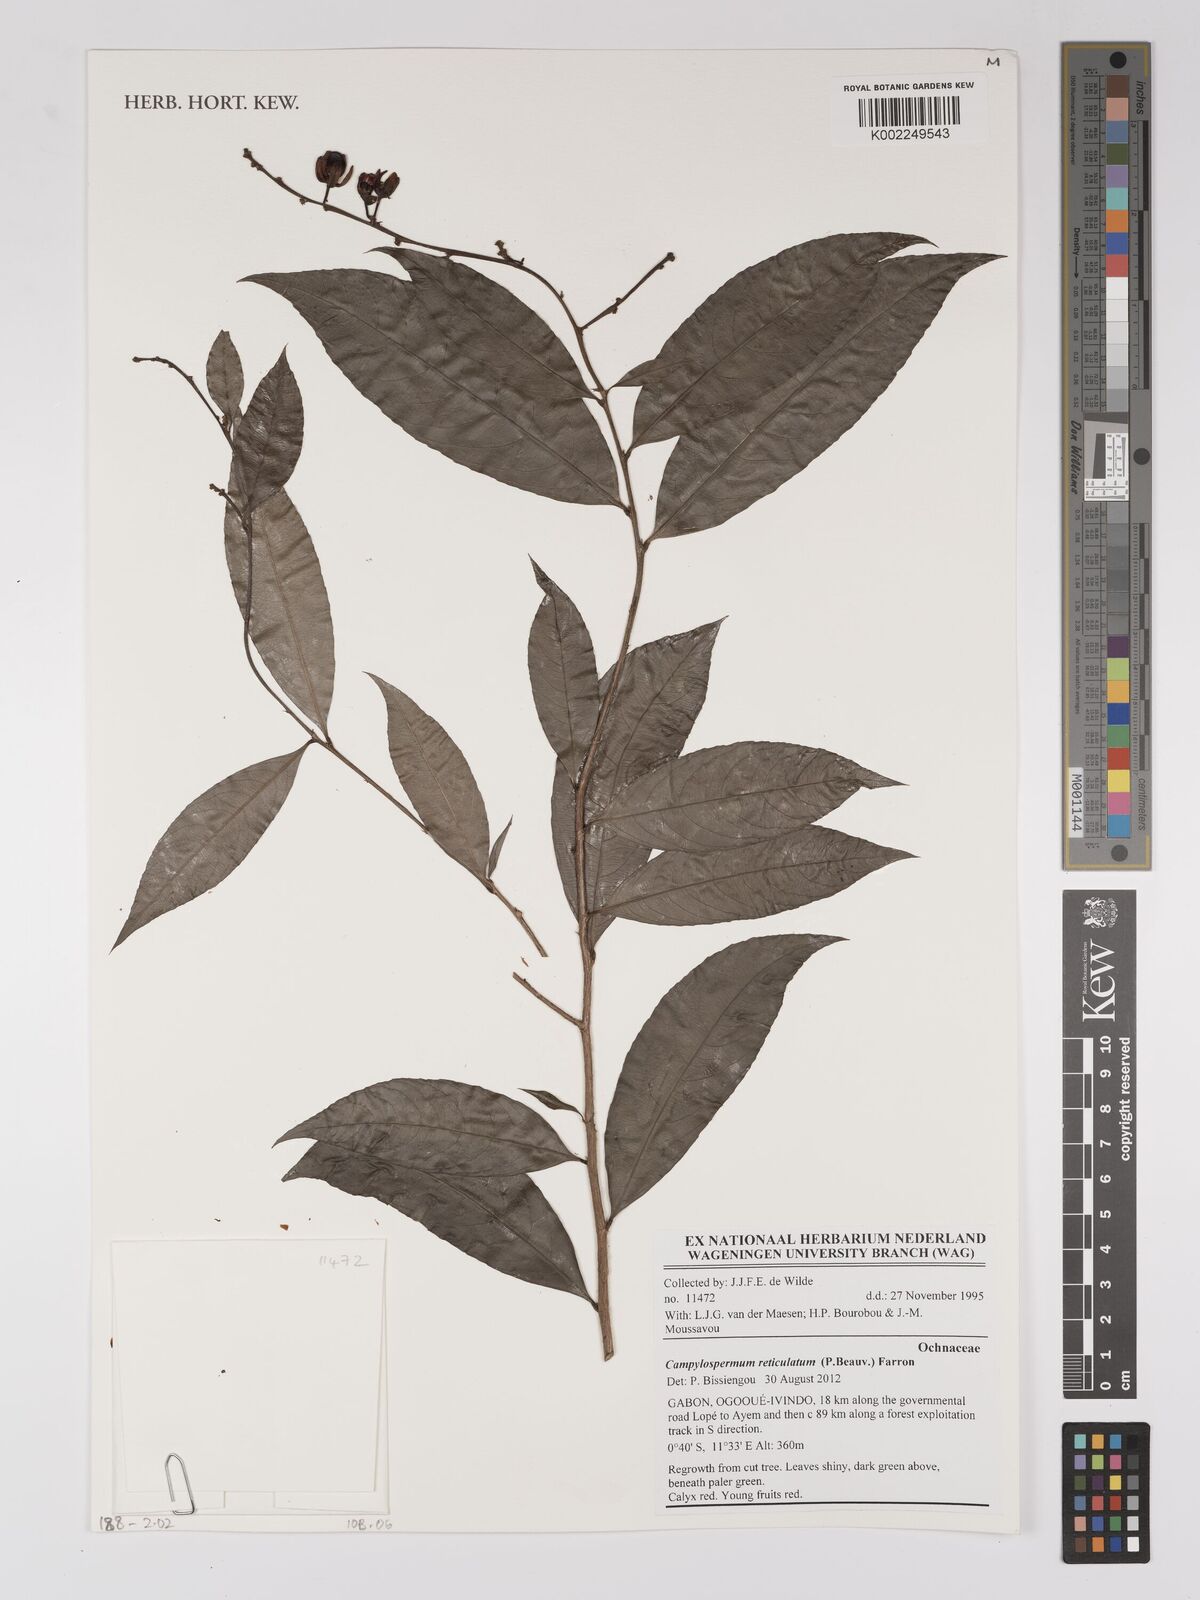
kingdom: Plantae
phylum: Tracheophyta
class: Magnoliopsida
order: Malpighiales
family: Ochnaceae
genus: Campylospermum
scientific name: Campylospermum reticulatum
